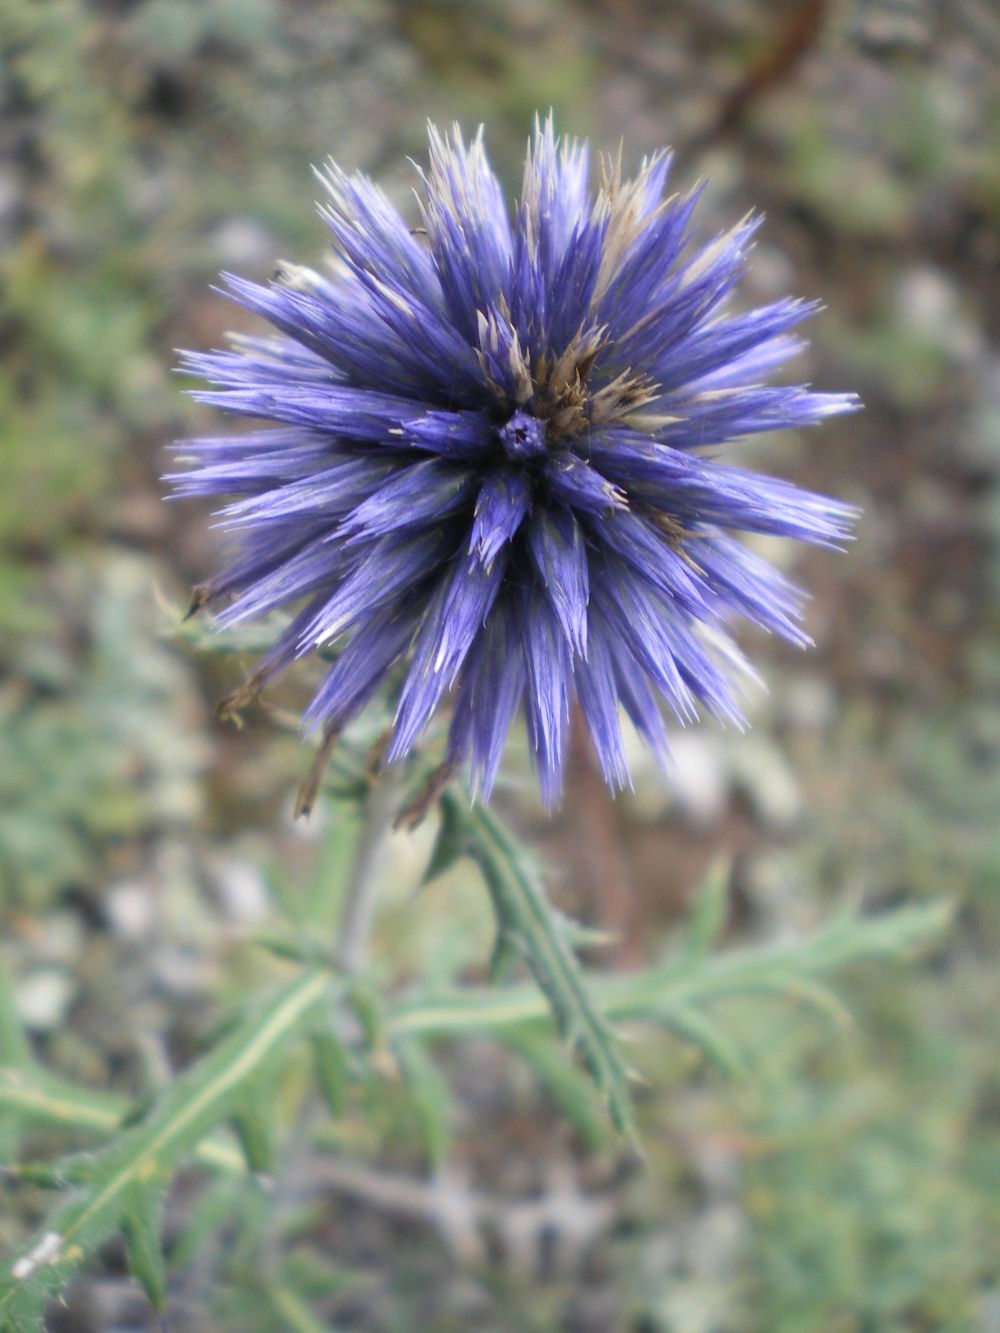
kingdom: Plantae
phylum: Tracheophyta
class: Magnoliopsida
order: Asterales
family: Asteraceae
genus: Echinops
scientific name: Echinops ritro
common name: Globe thistle
